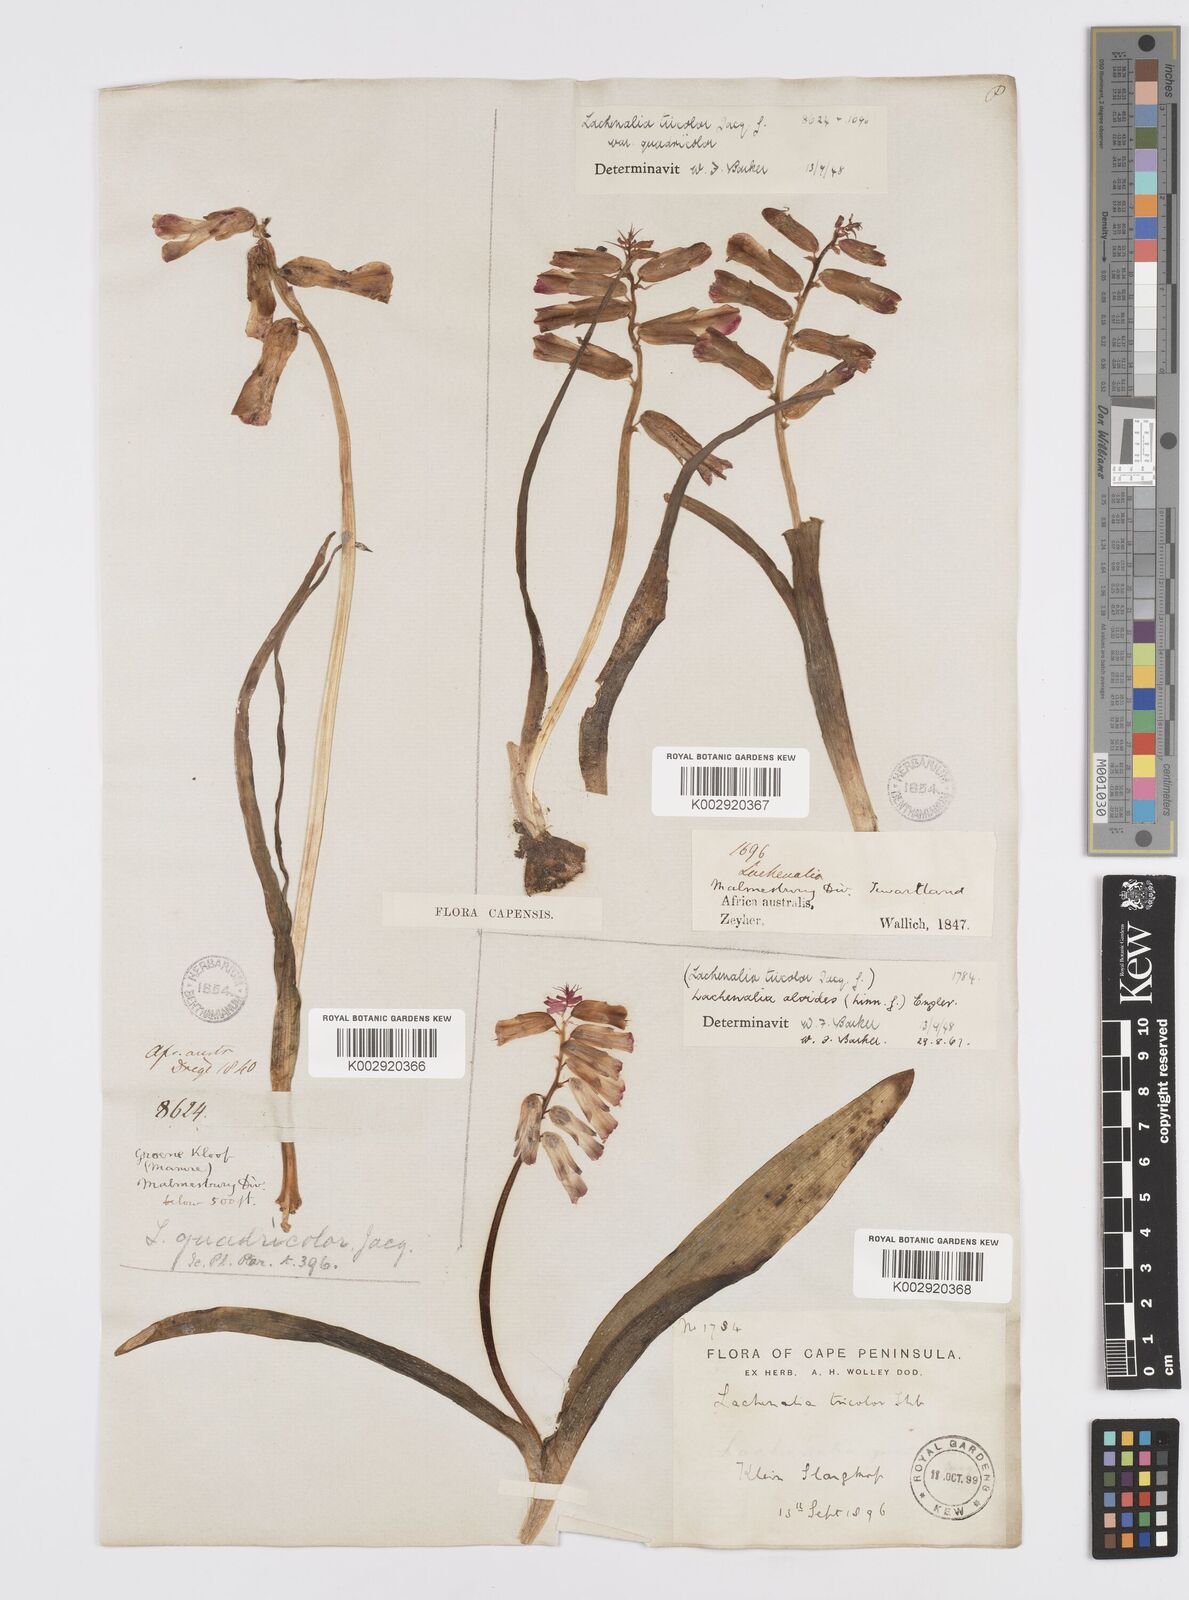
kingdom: Plantae
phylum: Tracheophyta
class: Liliopsida
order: Asparagales
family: Asparagaceae
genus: Lachenalia
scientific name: Lachenalia aloides
